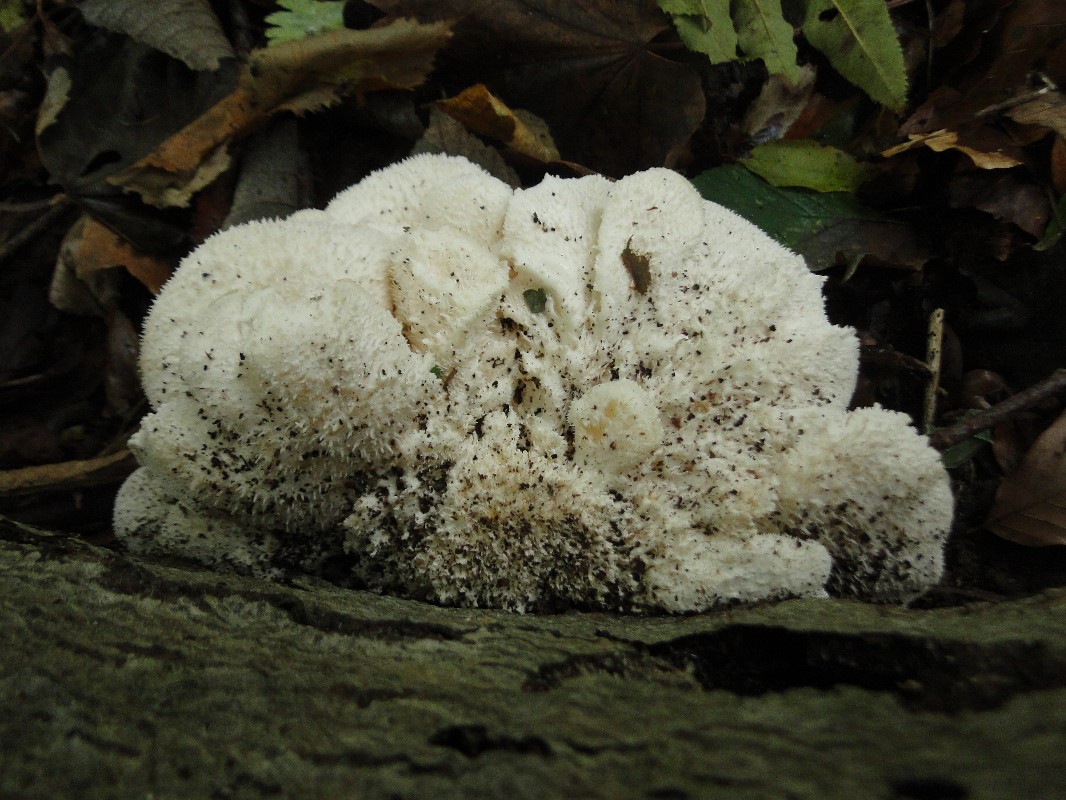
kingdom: Fungi
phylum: Basidiomycota
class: Agaricomycetes
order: Russulales
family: Hericiaceae
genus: Hericium
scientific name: Hericium cirrhatum
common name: børstepigsvamp
